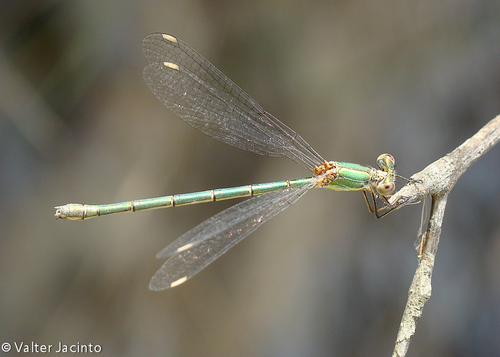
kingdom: Animalia
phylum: Arthropoda
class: Insecta
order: Odonata
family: Lestidae
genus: Chalcolestes
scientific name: Chalcolestes viridis
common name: Green emerald damselfly
